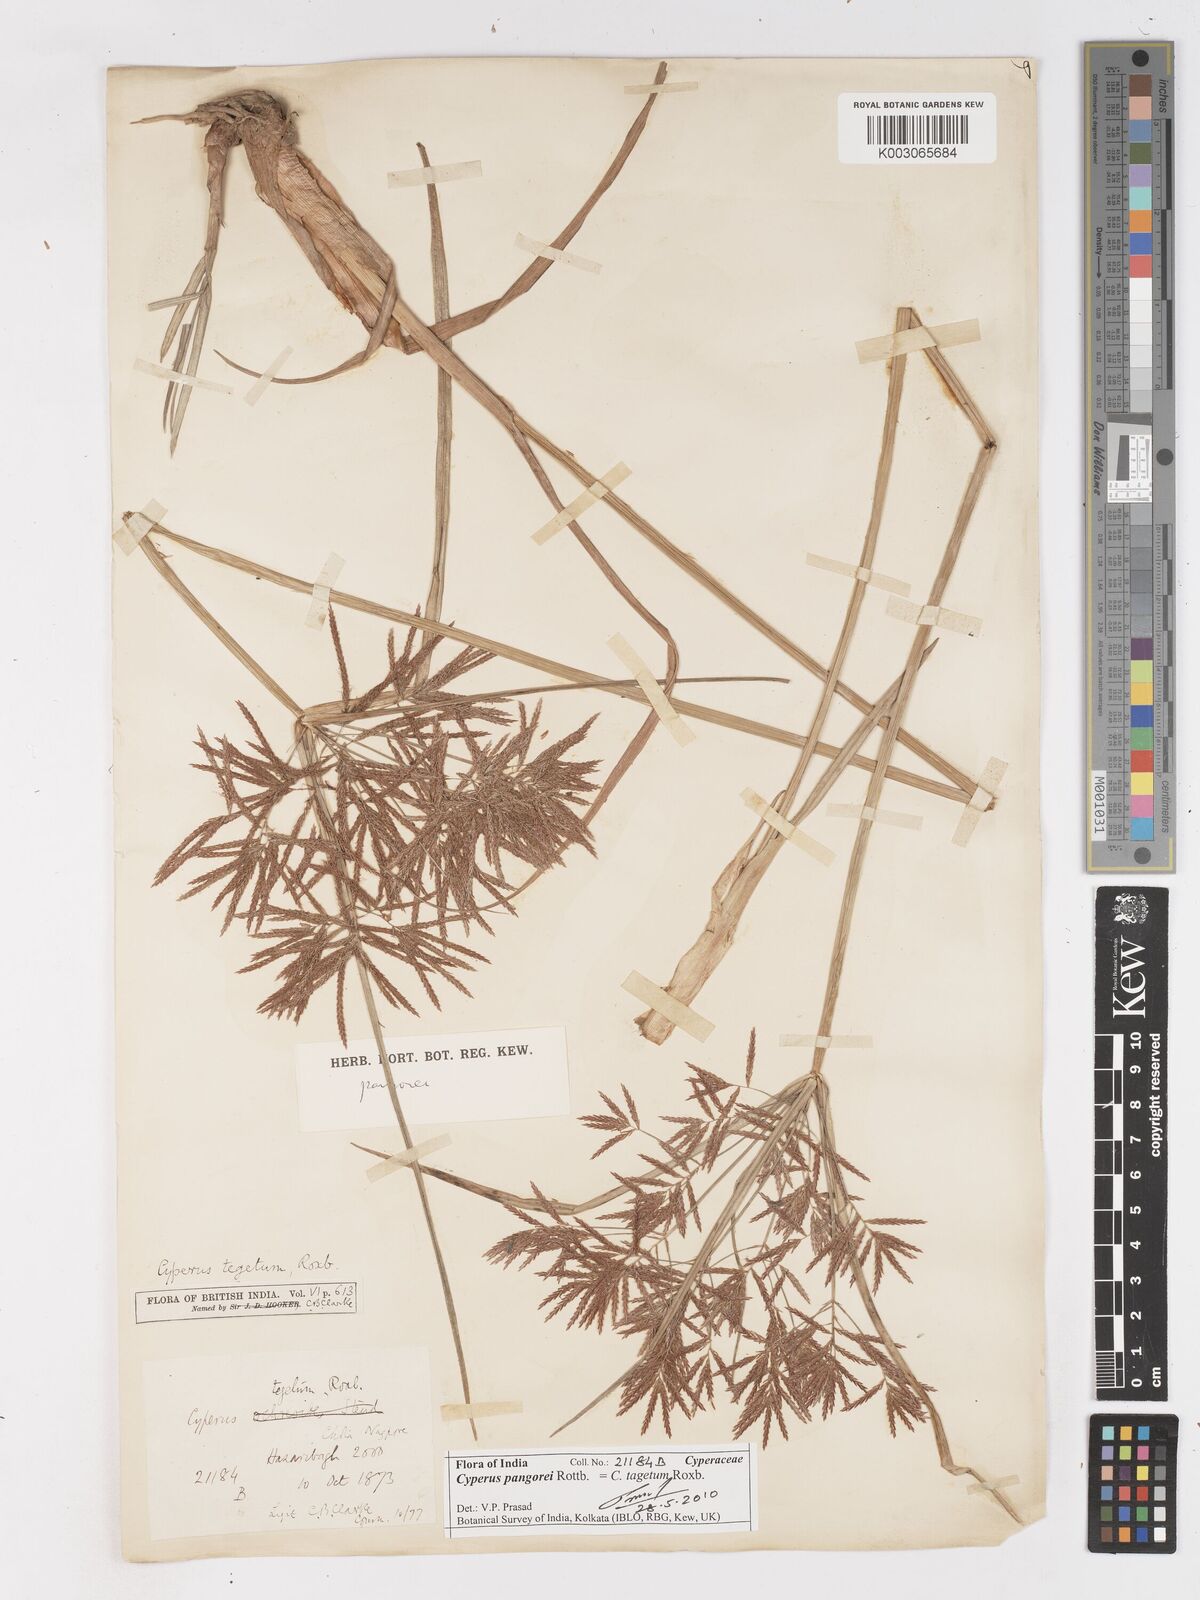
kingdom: Plantae
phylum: Tracheophyta
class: Liliopsida
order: Poales
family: Cyperaceae
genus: Cyperus
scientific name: Cyperus pangorei
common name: Mat sedge
